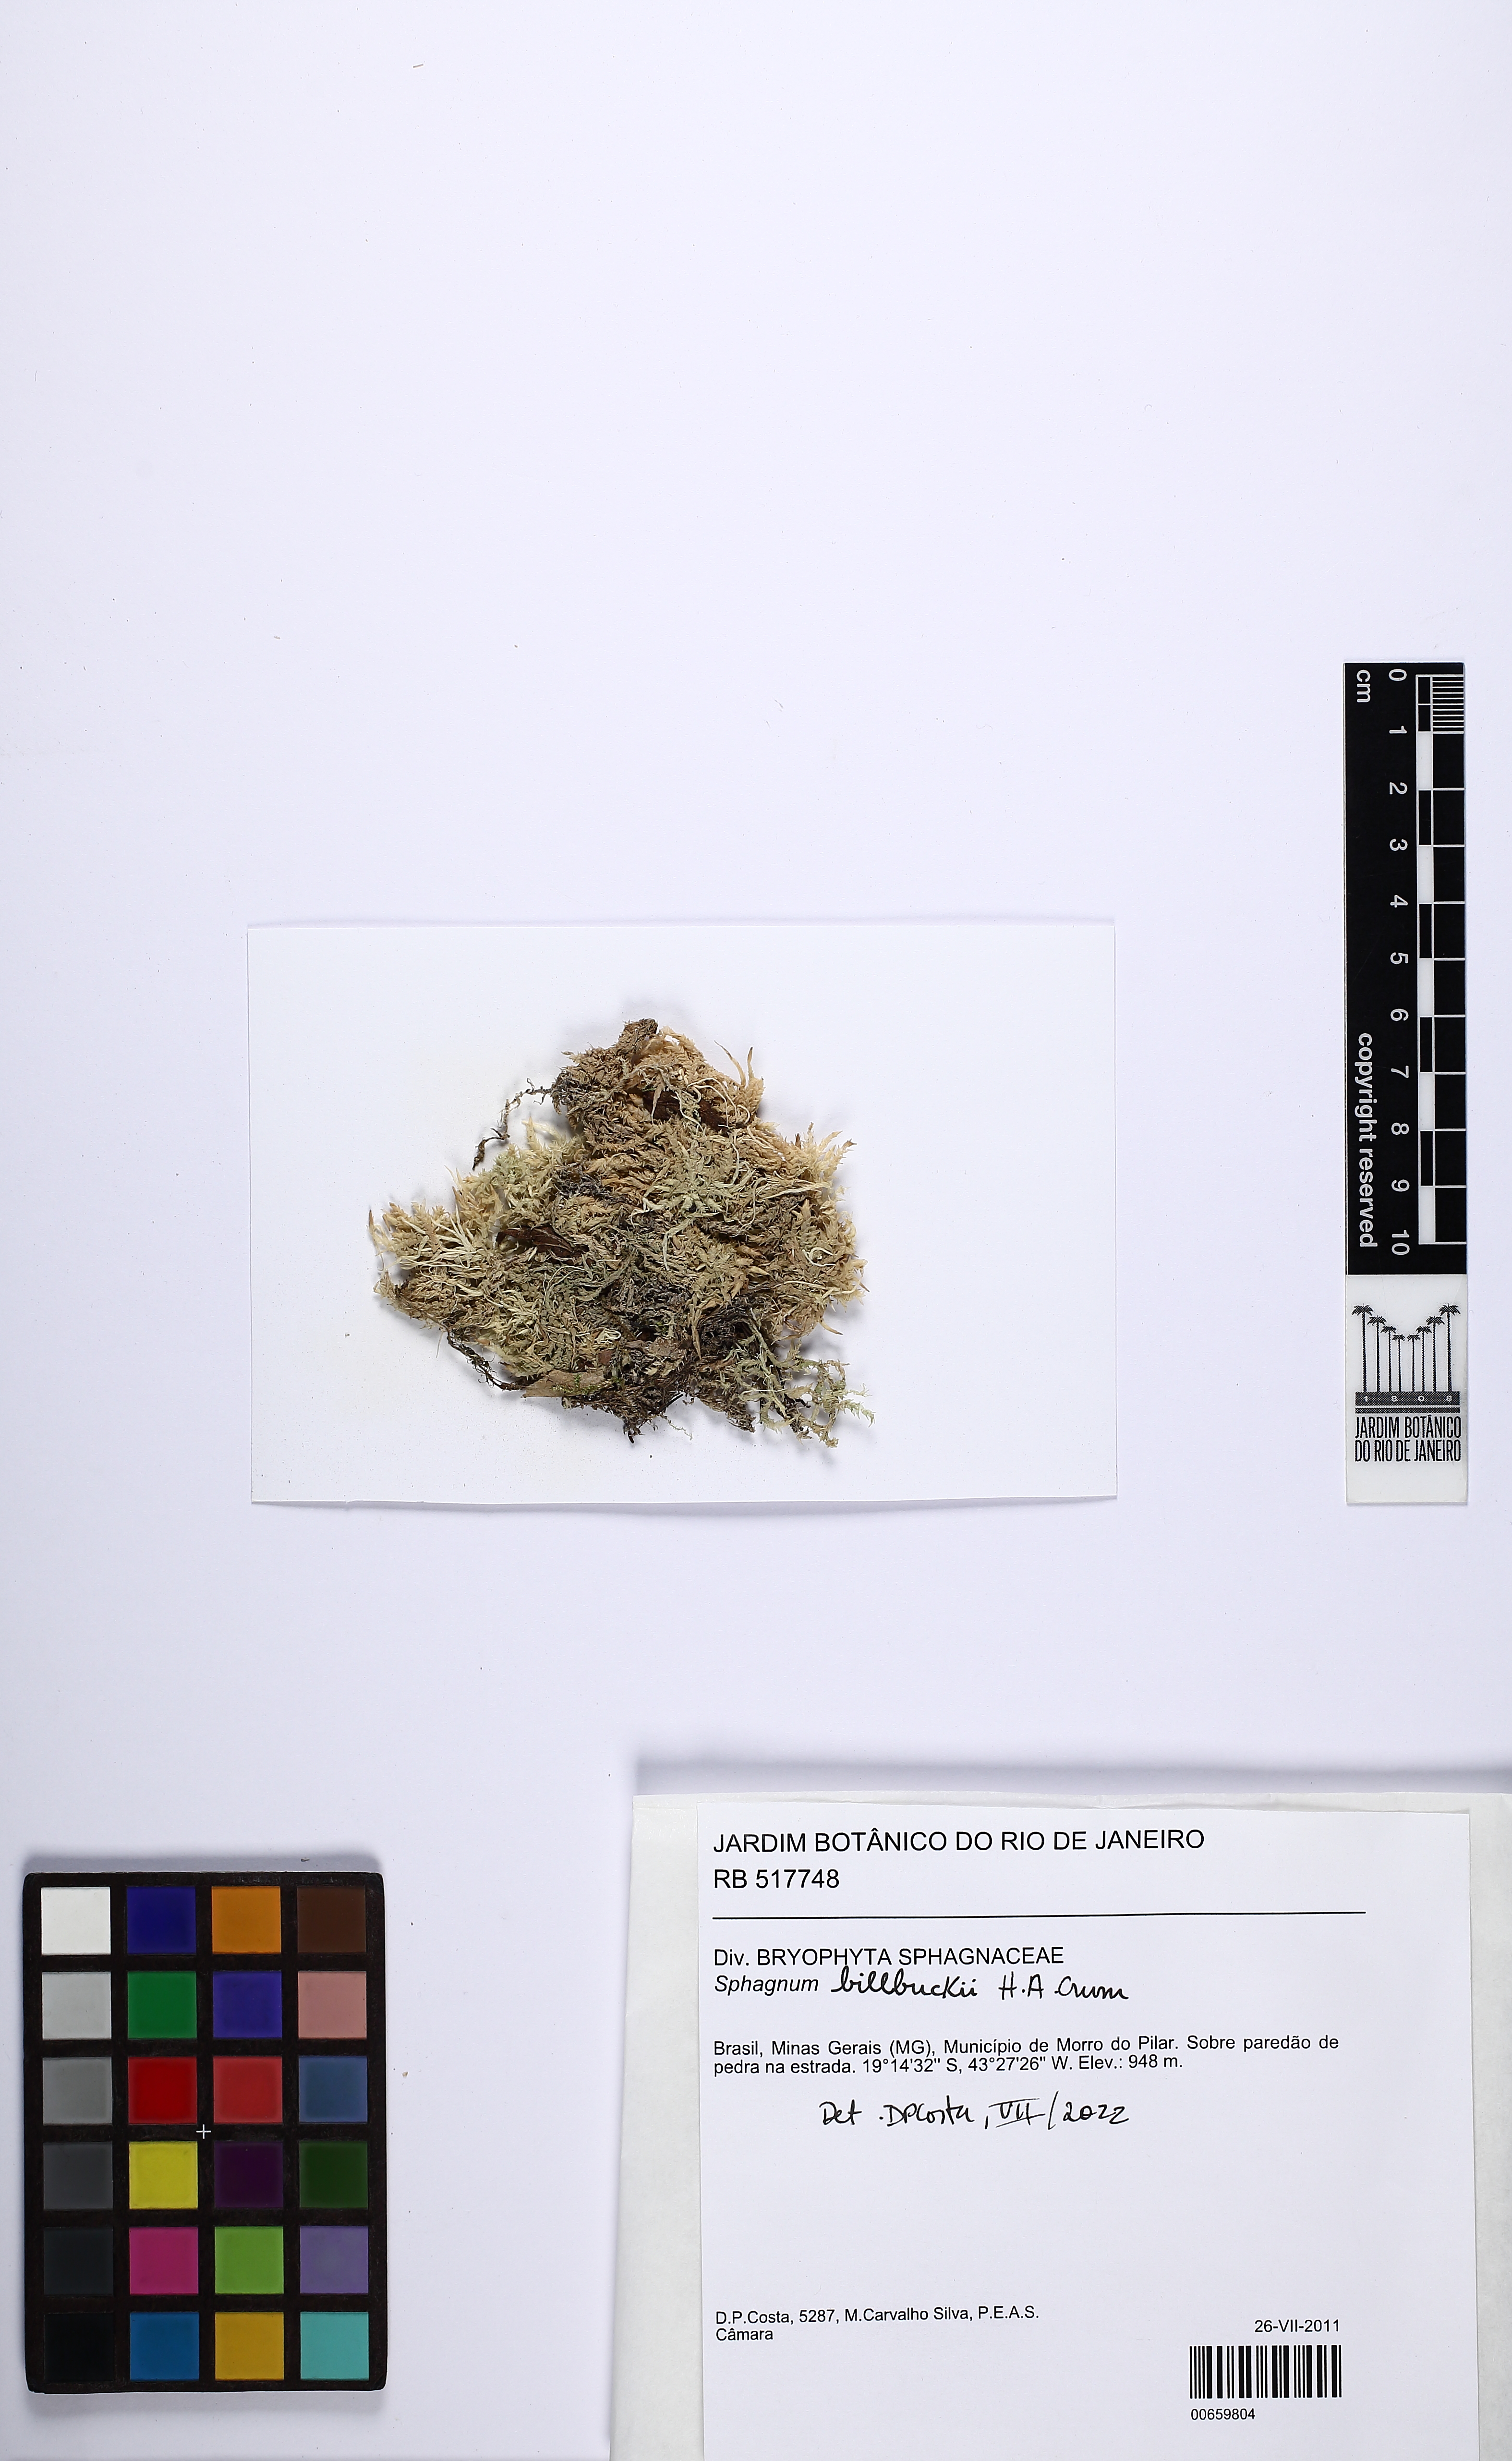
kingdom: Plantae
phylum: Bryophyta
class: Sphagnopsida
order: Sphagnales
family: Sphagnaceae
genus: Sphagnum
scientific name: Sphagnum billbuckii
